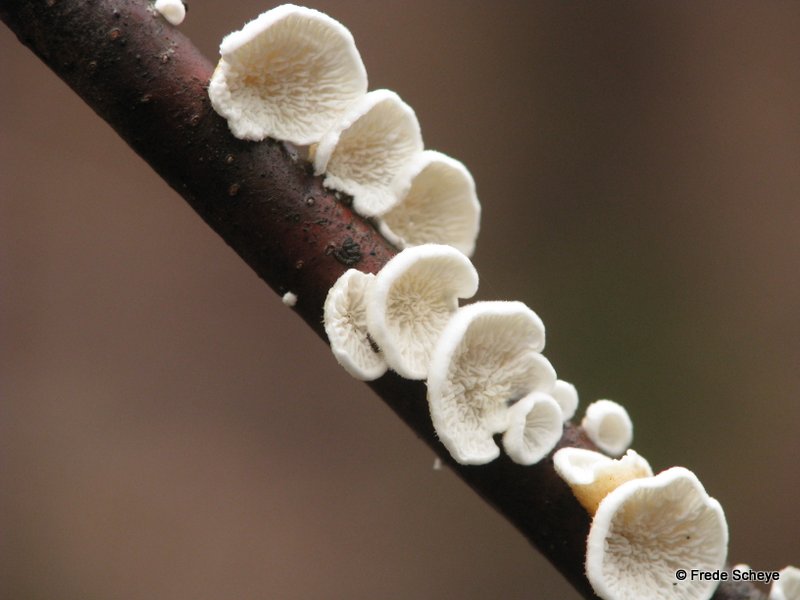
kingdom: Fungi
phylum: Basidiomycota
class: Agaricomycetes
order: Amylocorticiales
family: Amylocorticiaceae
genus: Plicaturopsis
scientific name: Plicaturopsis crispa
